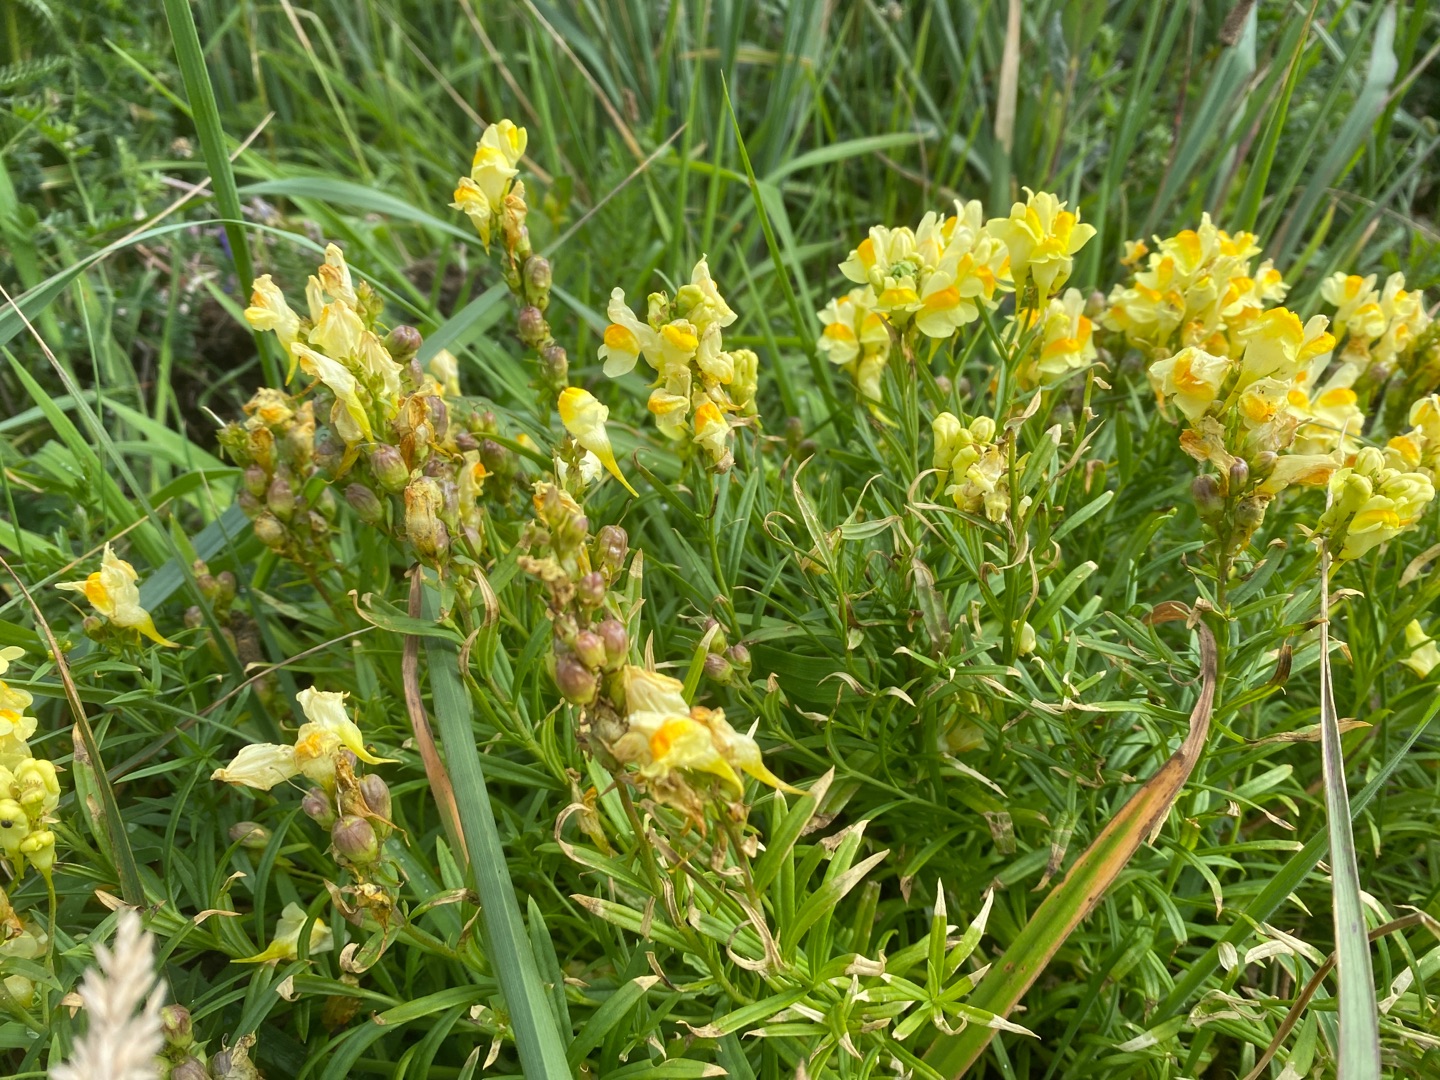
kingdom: Plantae
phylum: Tracheophyta
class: Magnoliopsida
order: Lamiales
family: Plantaginaceae
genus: Linaria
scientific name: Linaria vulgaris
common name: Almindelig torskemund
